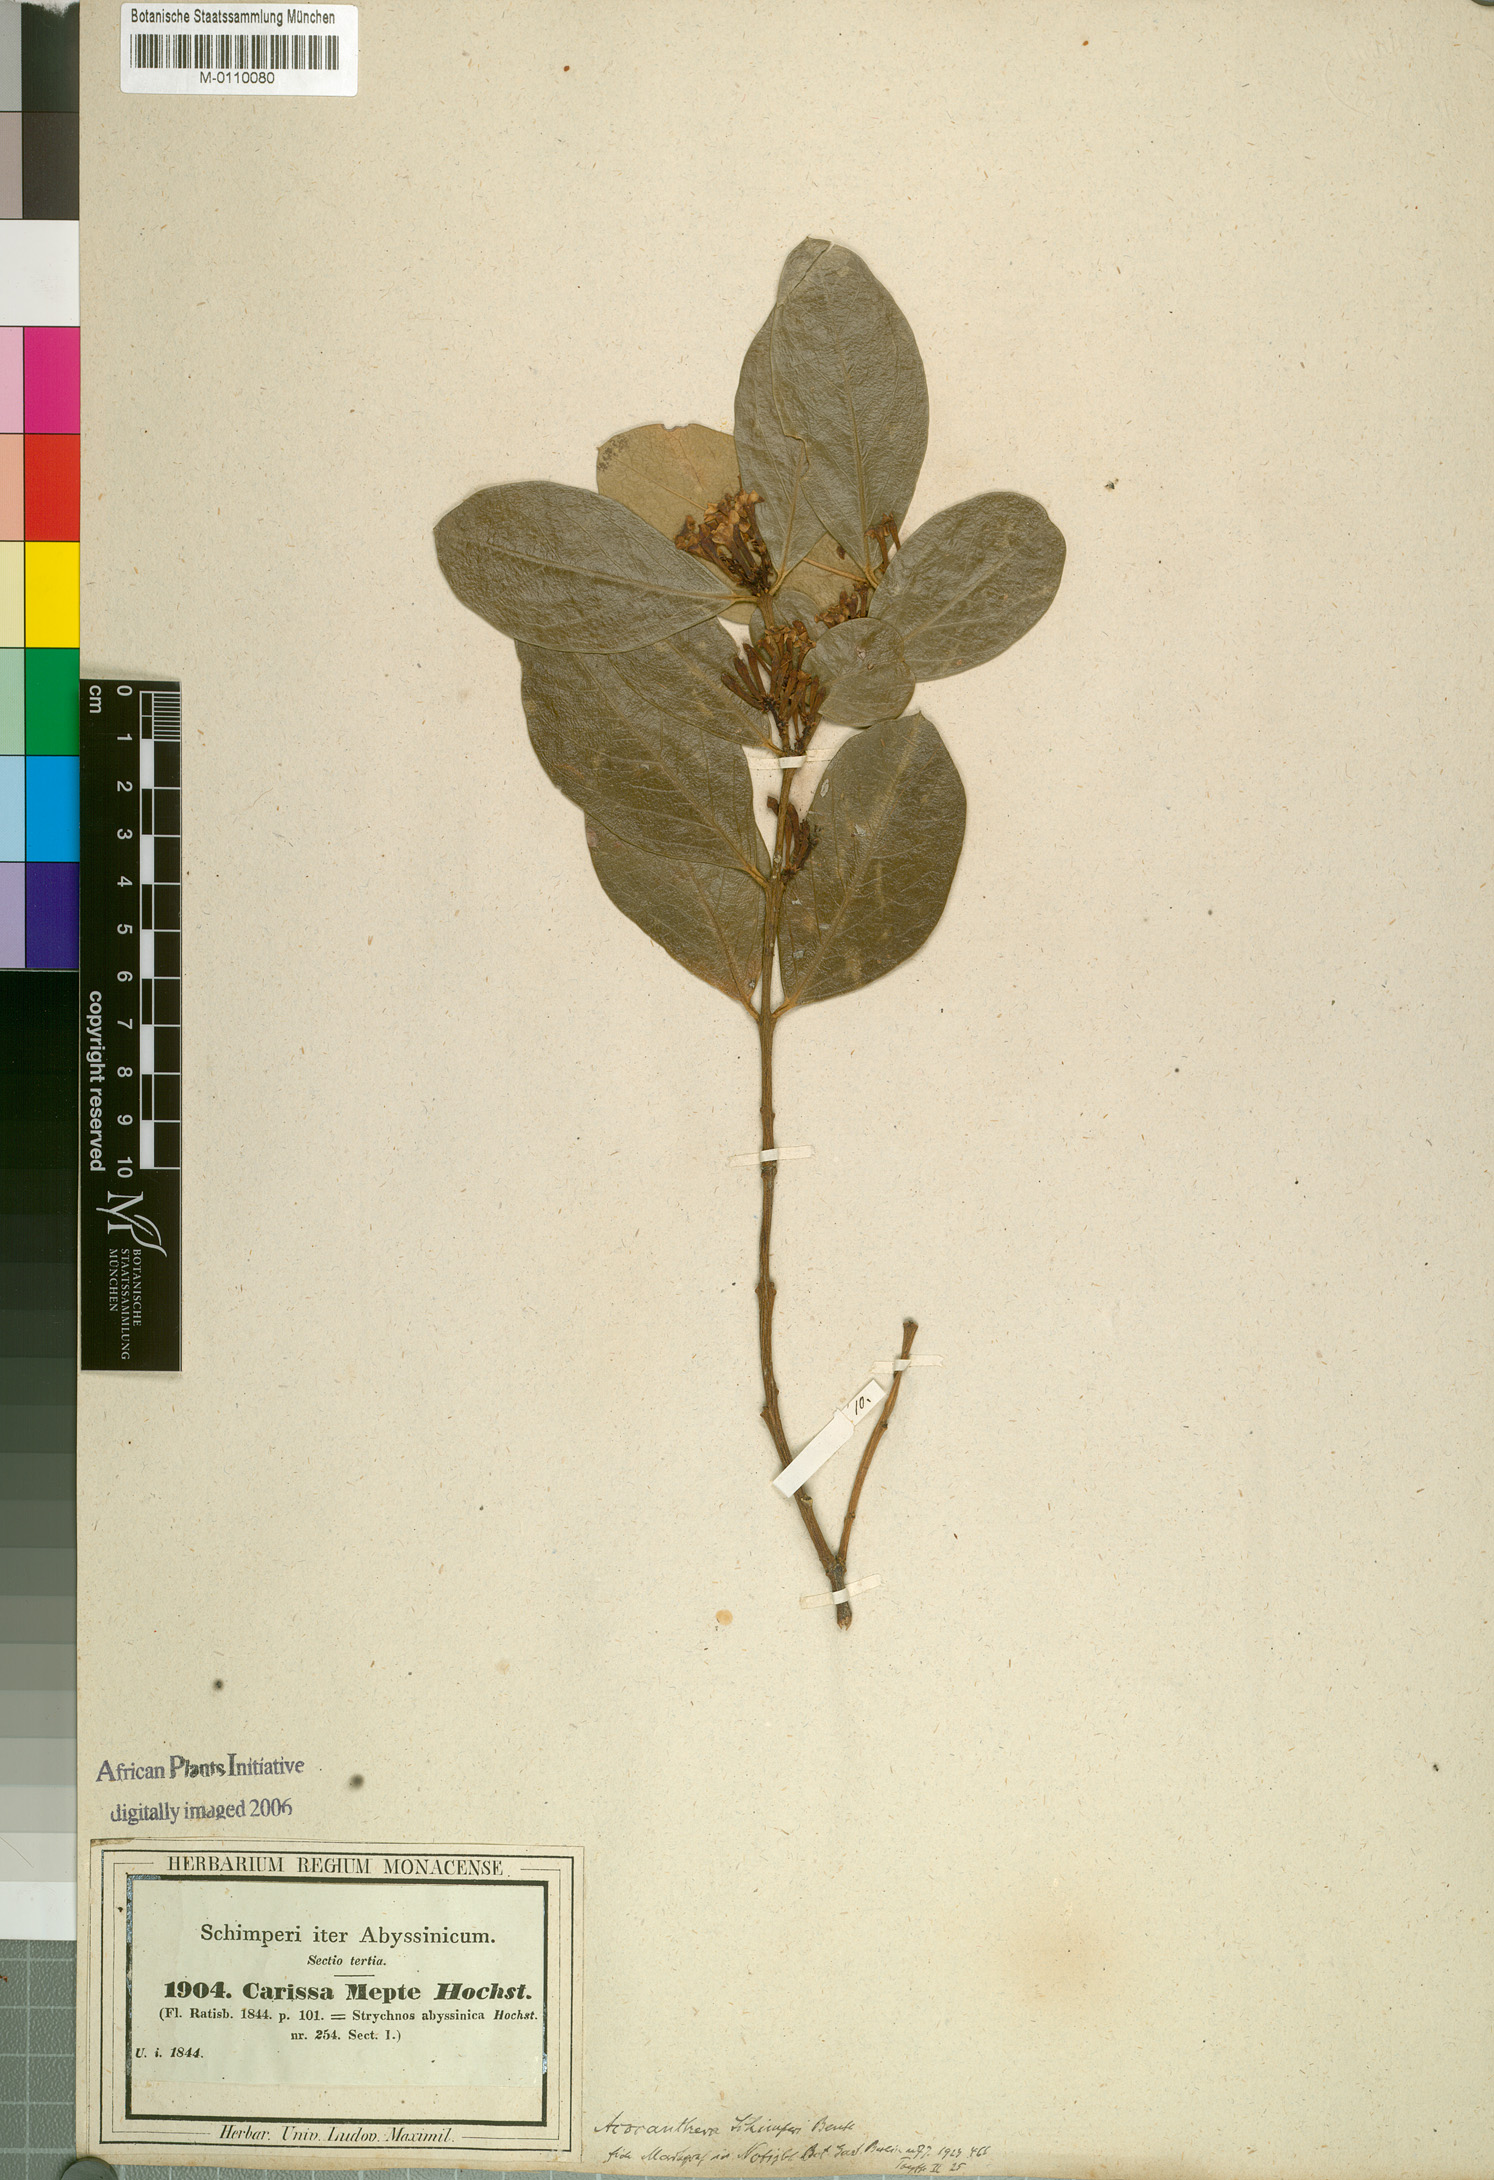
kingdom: Plantae
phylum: Tracheophyta
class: Magnoliopsida
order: Gentianales
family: Apocynaceae
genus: Acokanthera
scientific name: Acokanthera schimperi
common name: Arrow-poison-tree
